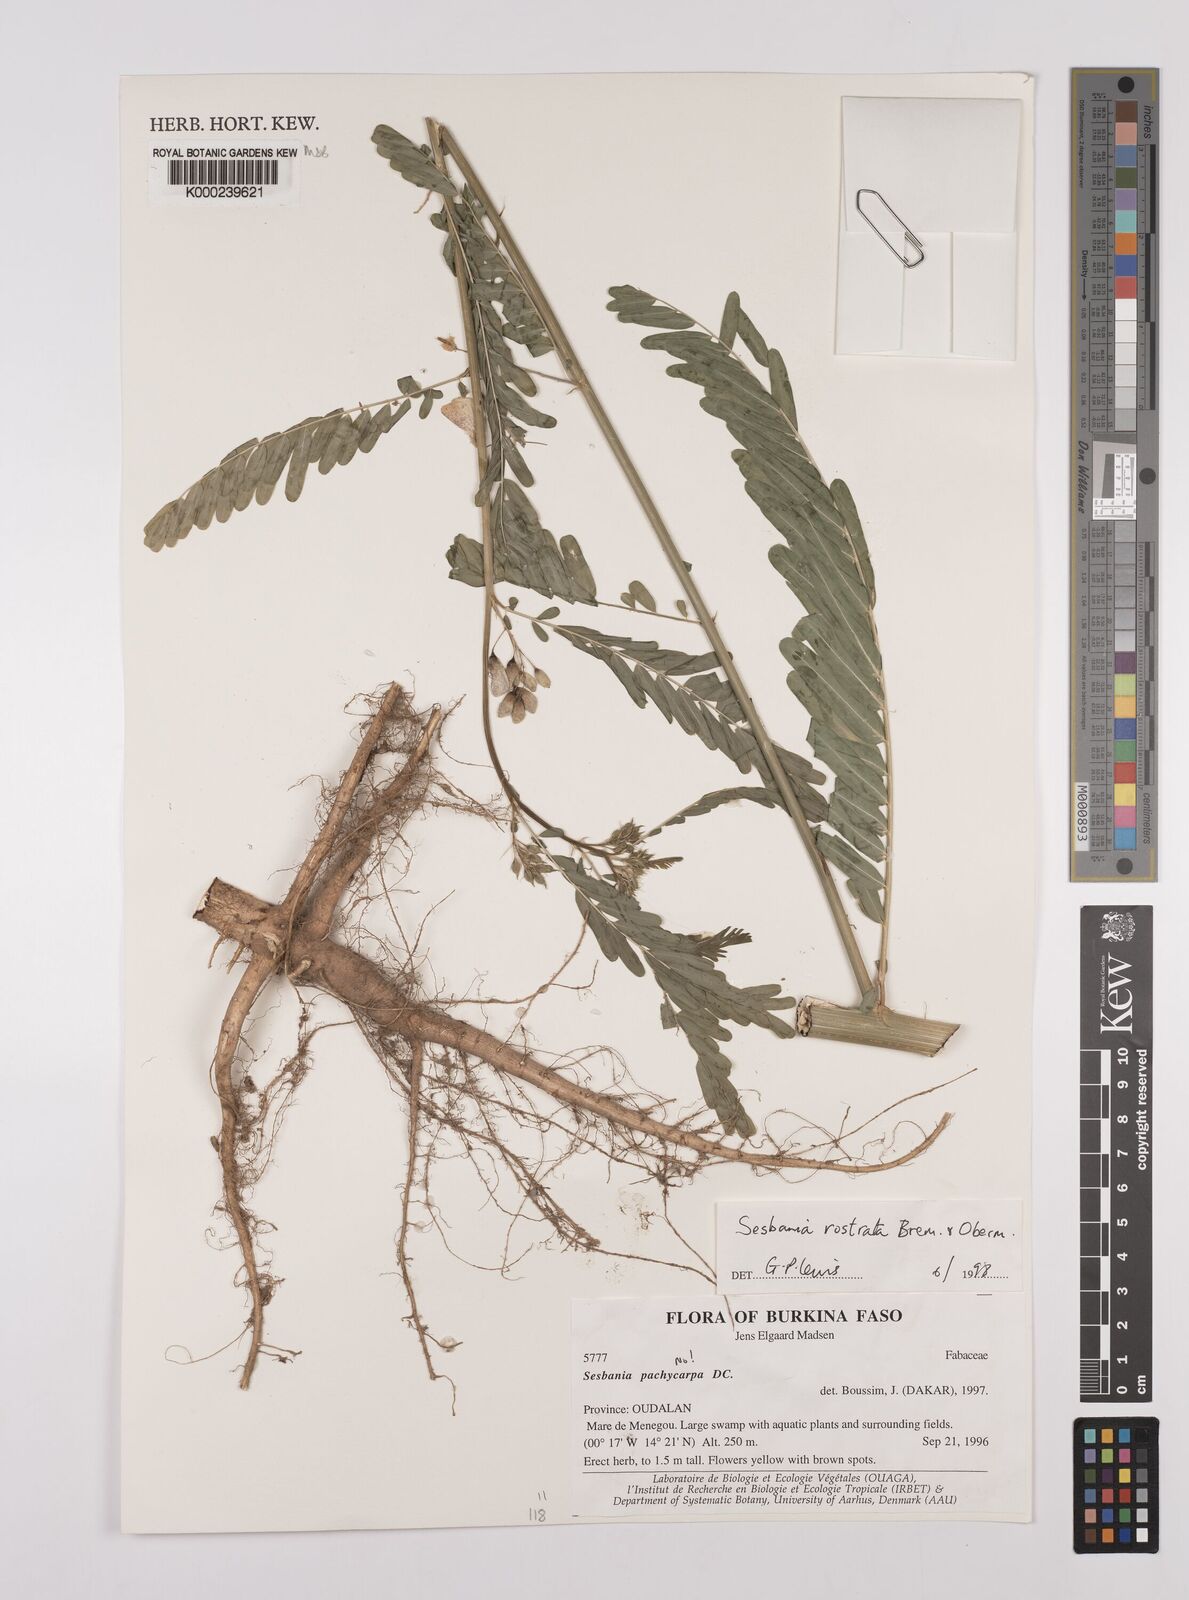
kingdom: Plantae
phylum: Tracheophyta
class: Magnoliopsida
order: Fabales
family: Fabaceae
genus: Sesbania
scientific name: Sesbania rostrata
